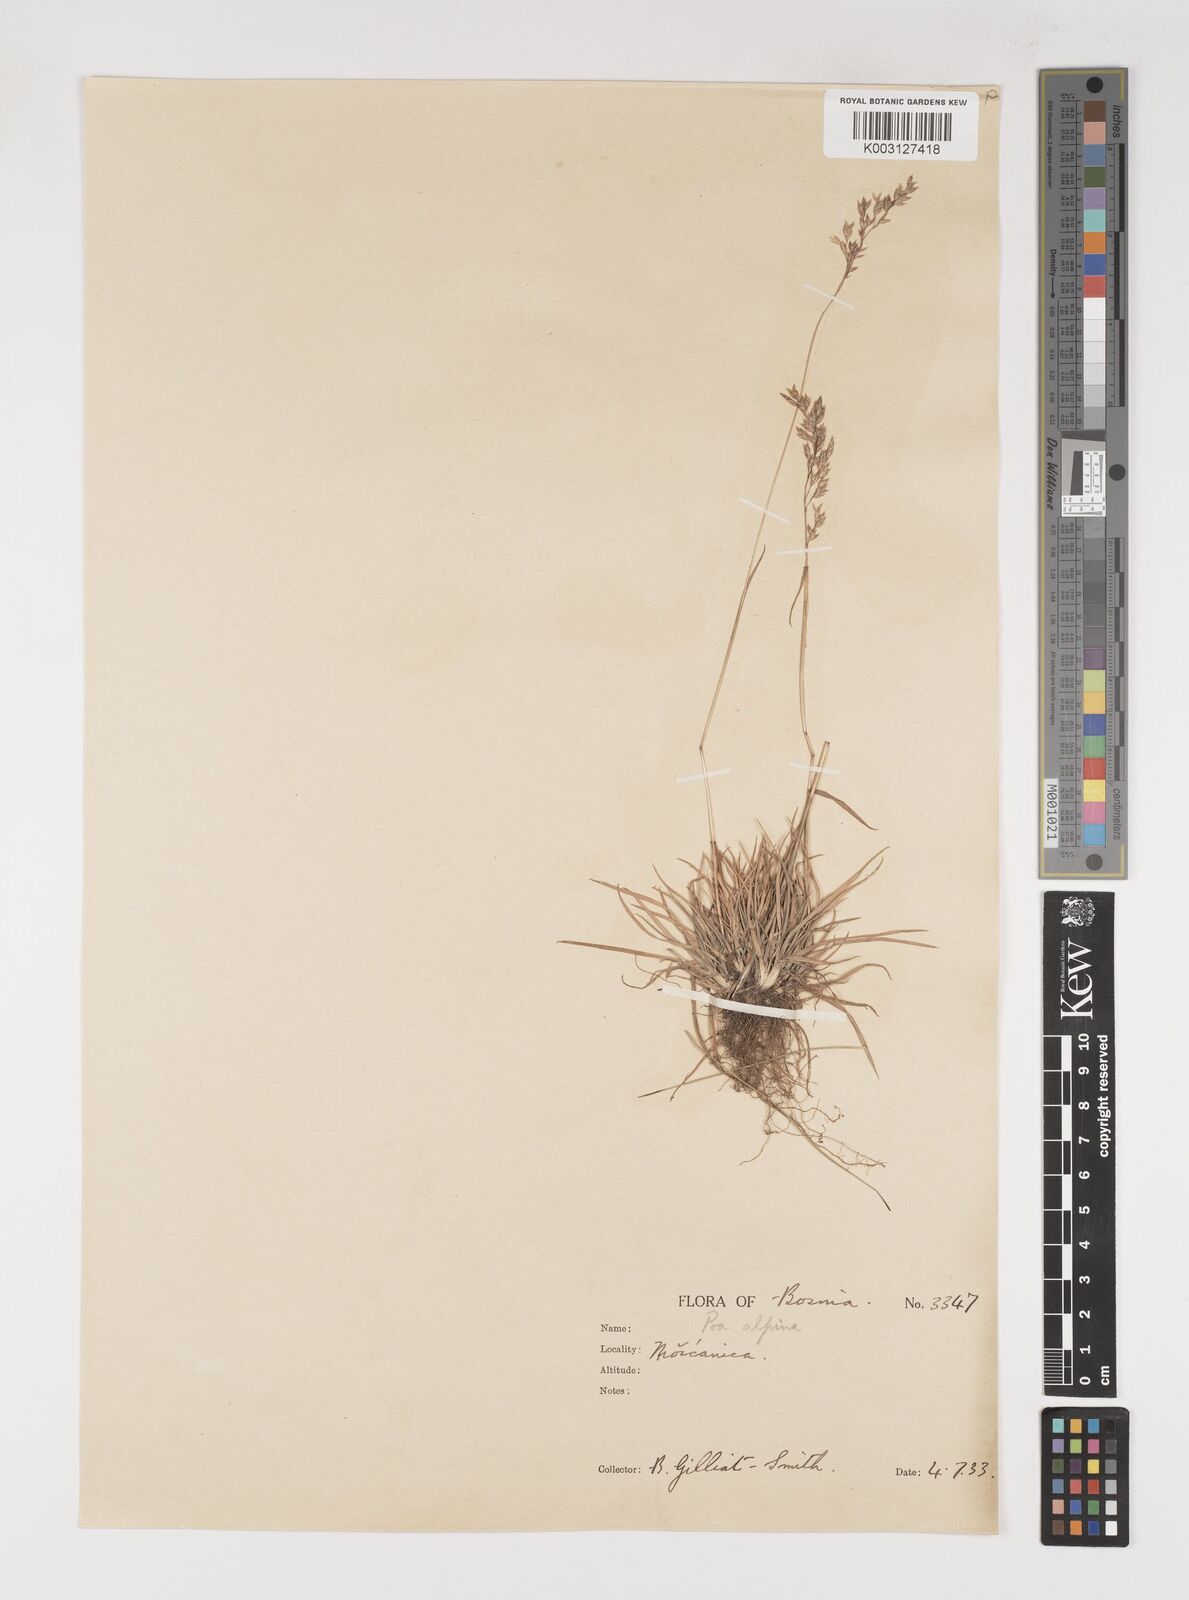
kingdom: Plantae
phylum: Tracheophyta
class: Liliopsida
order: Poales
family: Poaceae
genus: Poa
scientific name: Poa alpina
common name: Alpine bluegrass
